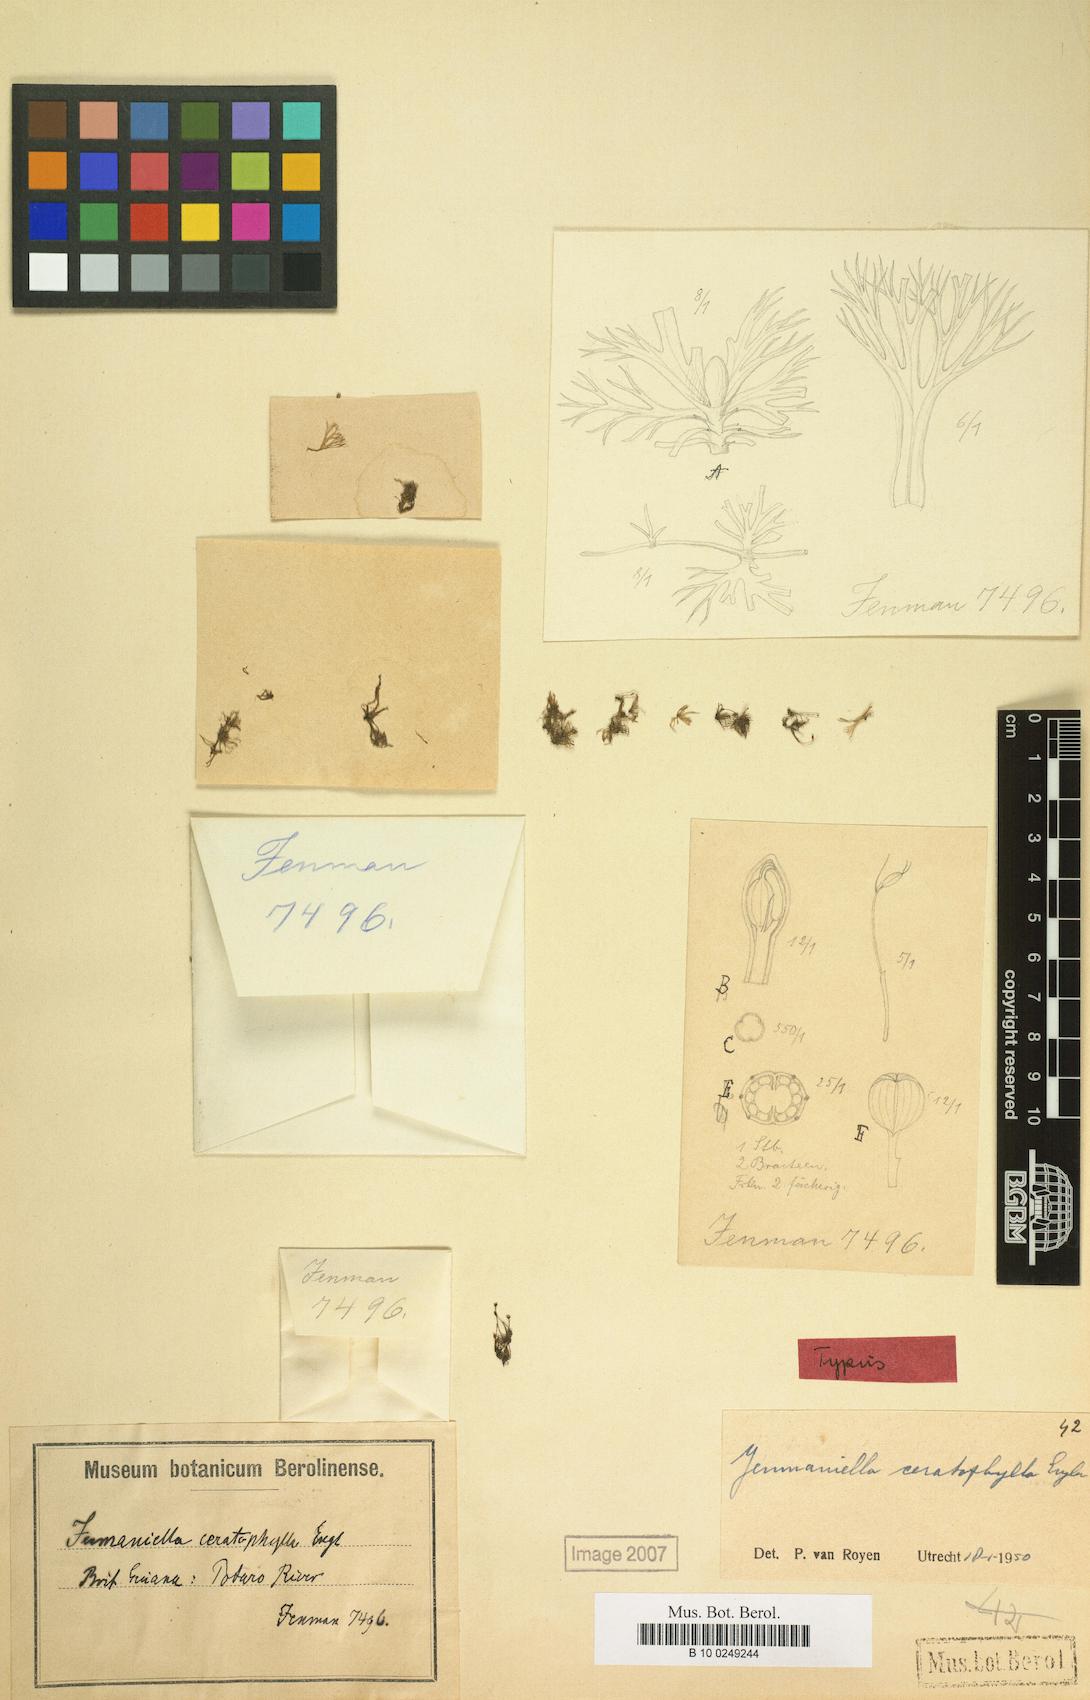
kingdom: Plantae
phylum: Tracheophyta
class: Magnoliopsida
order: Malpighiales
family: Podostemaceae
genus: Lophogyne
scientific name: Lophogyne ceratophylla
